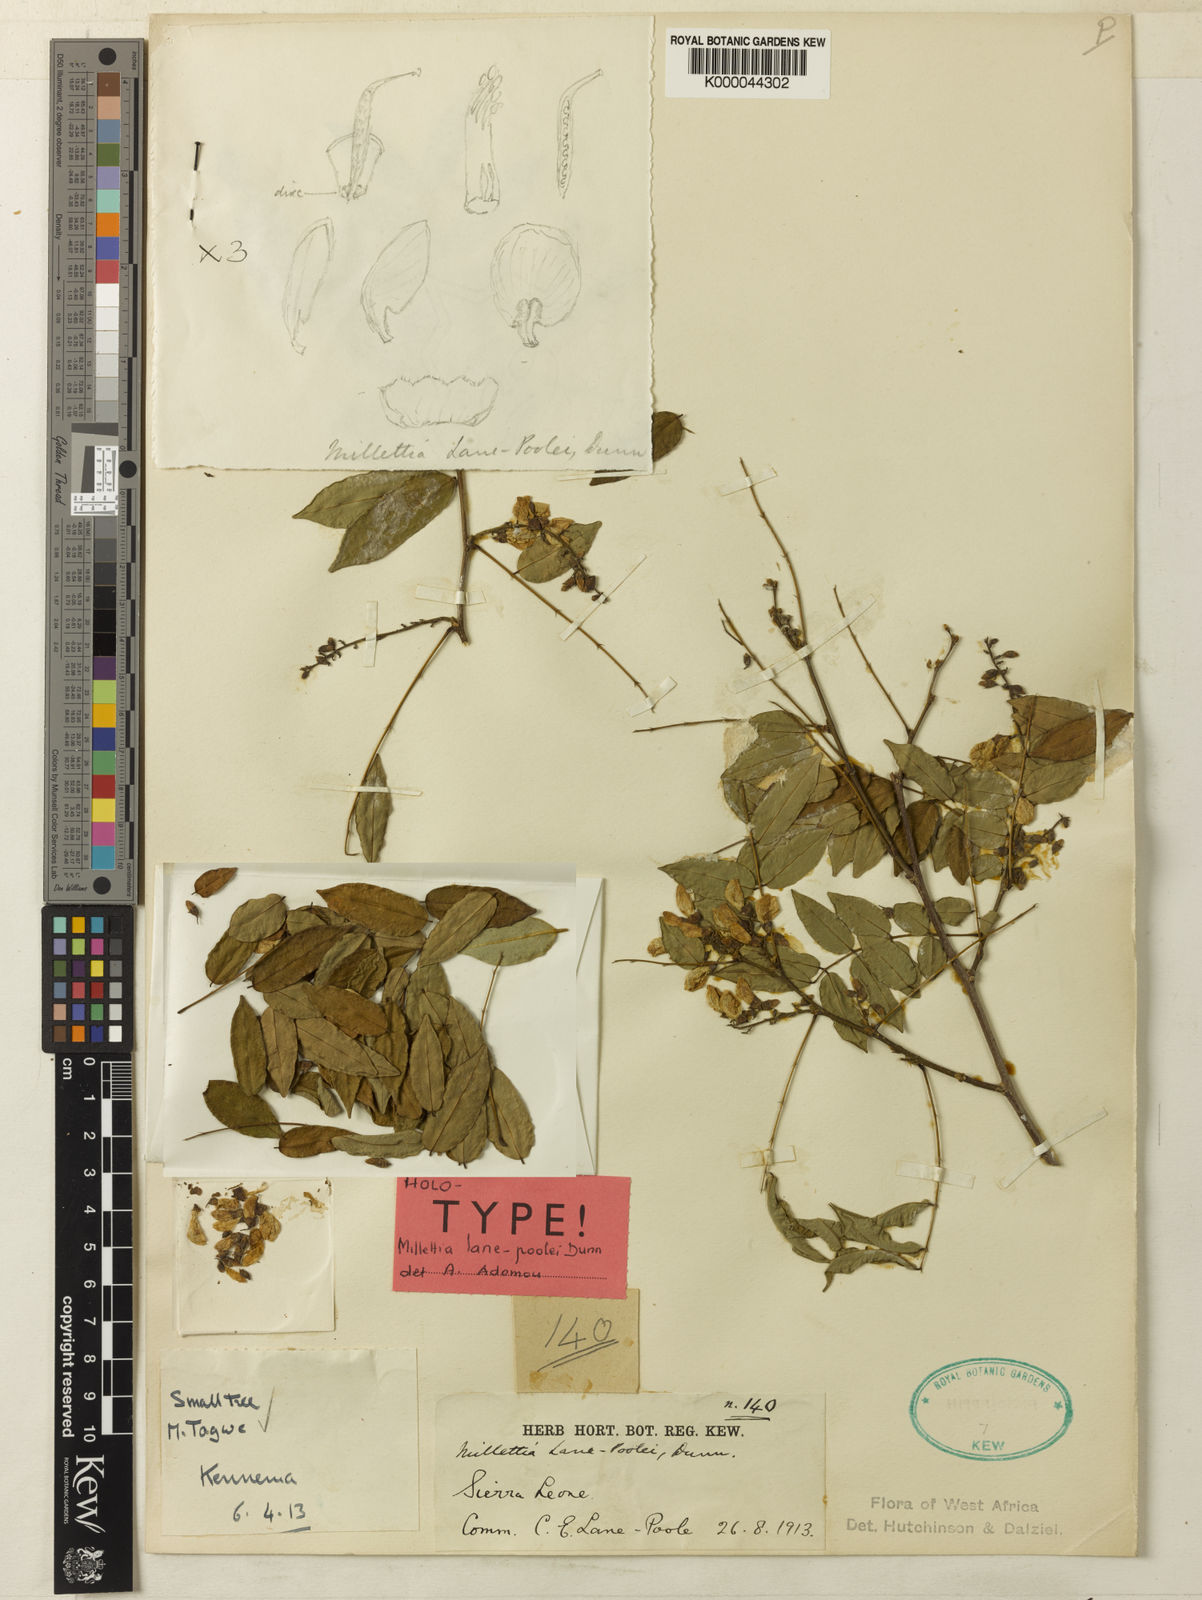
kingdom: Plantae
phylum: Tracheophyta
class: Magnoliopsida
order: Fabales
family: Fabaceae
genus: Millettia
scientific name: Millettia lane-poolei
